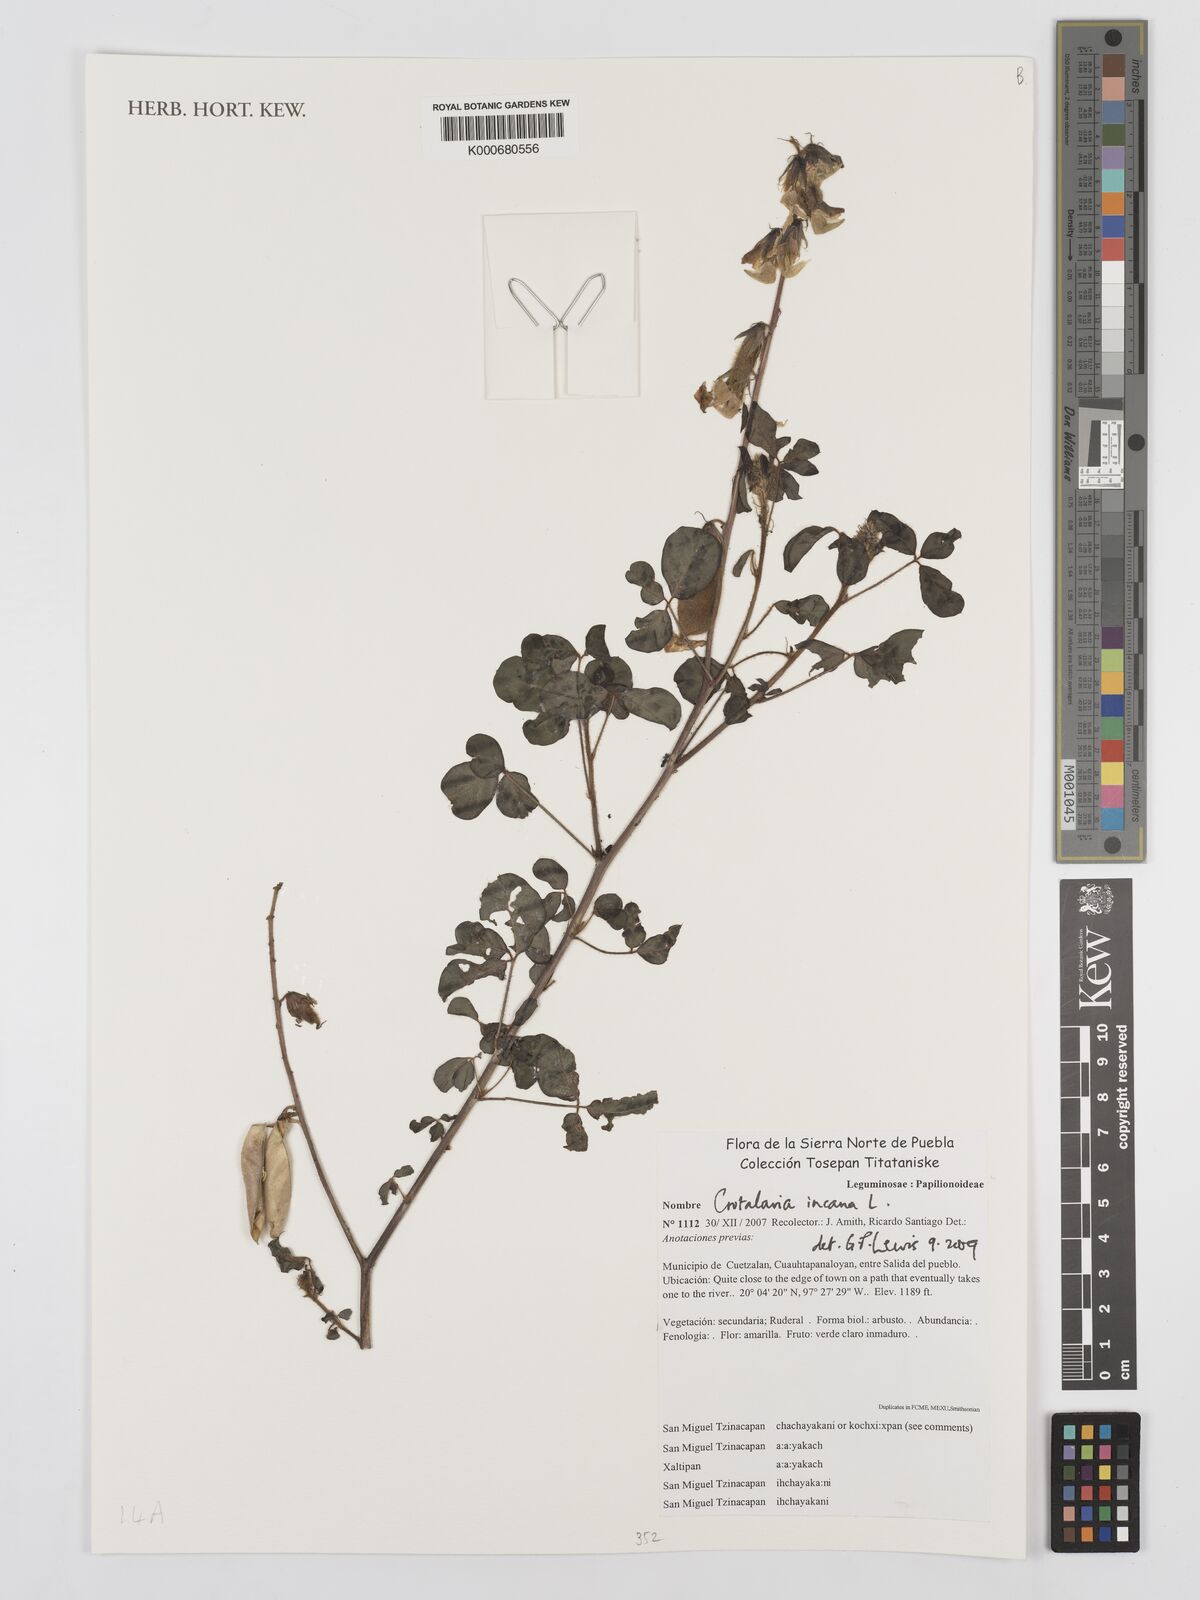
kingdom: Plantae
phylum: Tracheophyta
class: Magnoliopsida
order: Fabales
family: Fabaceae
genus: Crotalaria
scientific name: Crotalaria incana
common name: Shakeshake
